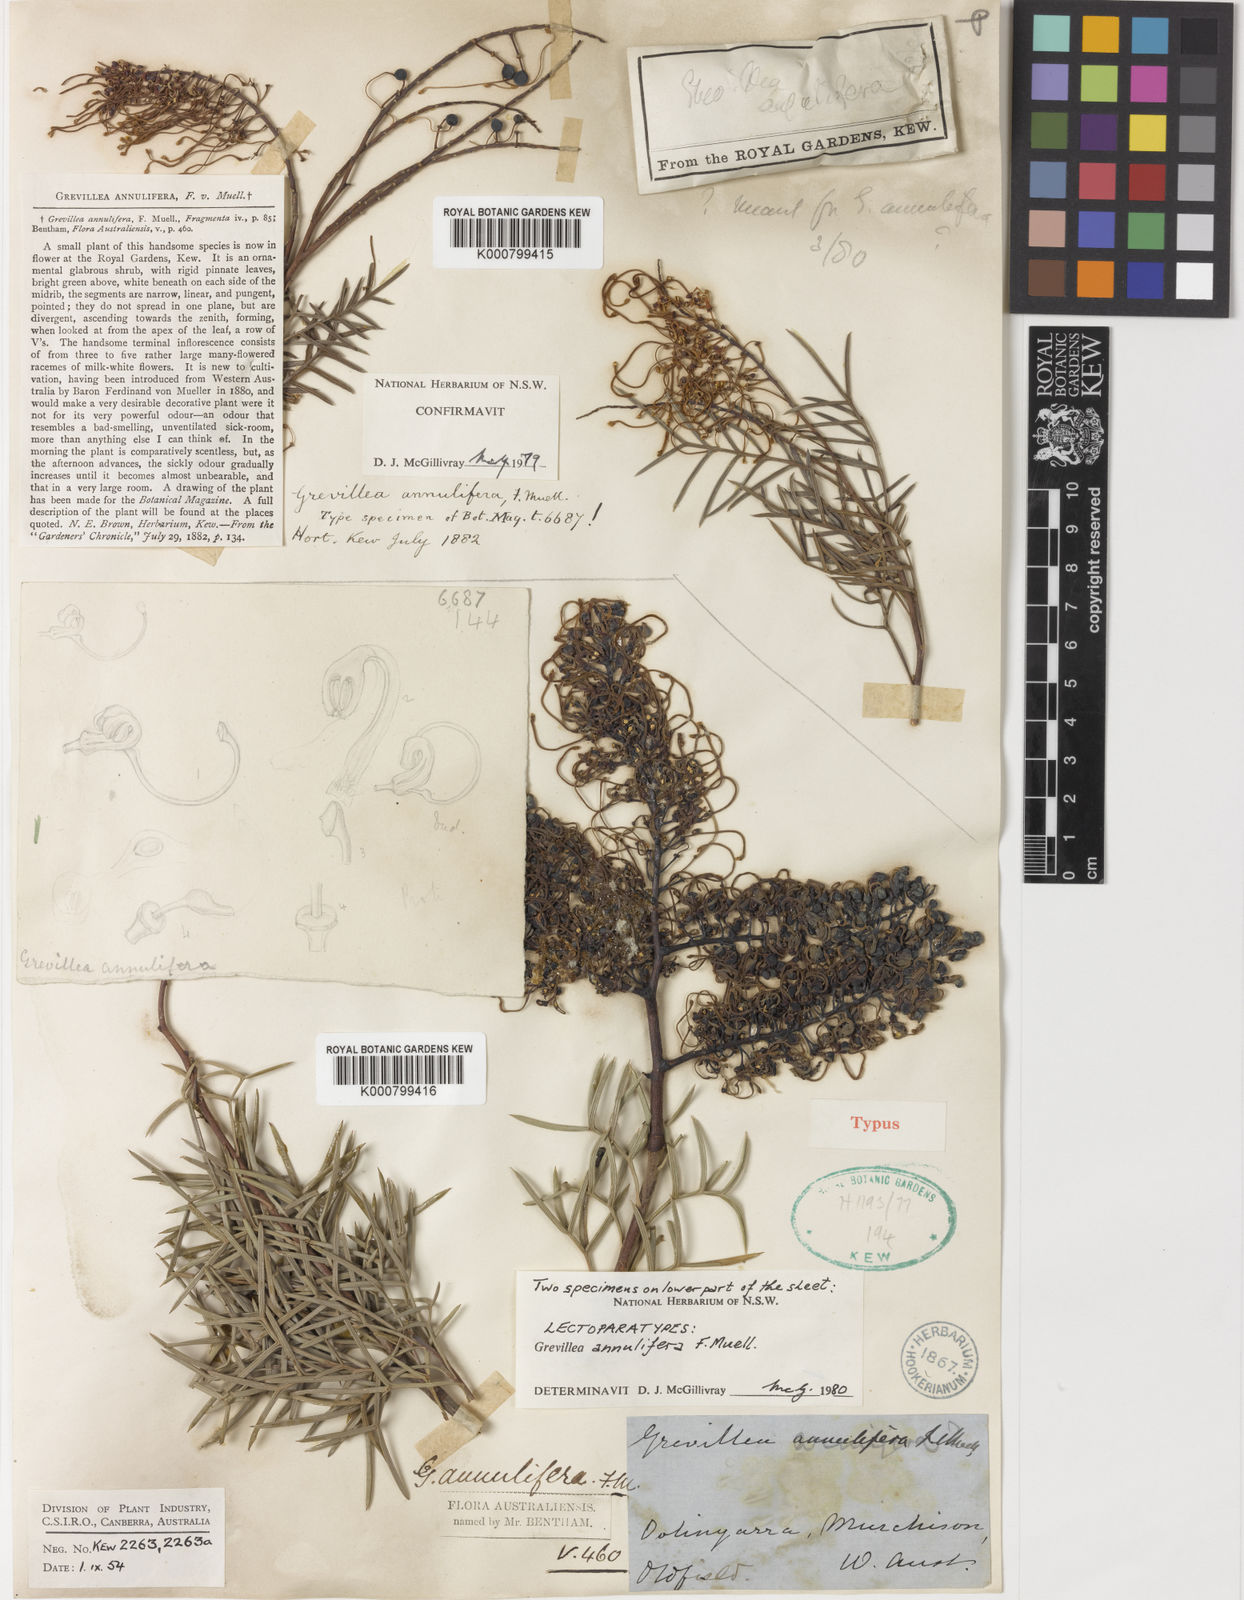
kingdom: Plantae
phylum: Tracheophyta
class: Magnoliopsida
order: Proteales
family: Proteaceae
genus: Grevillea
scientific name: Grevillea annulifera
